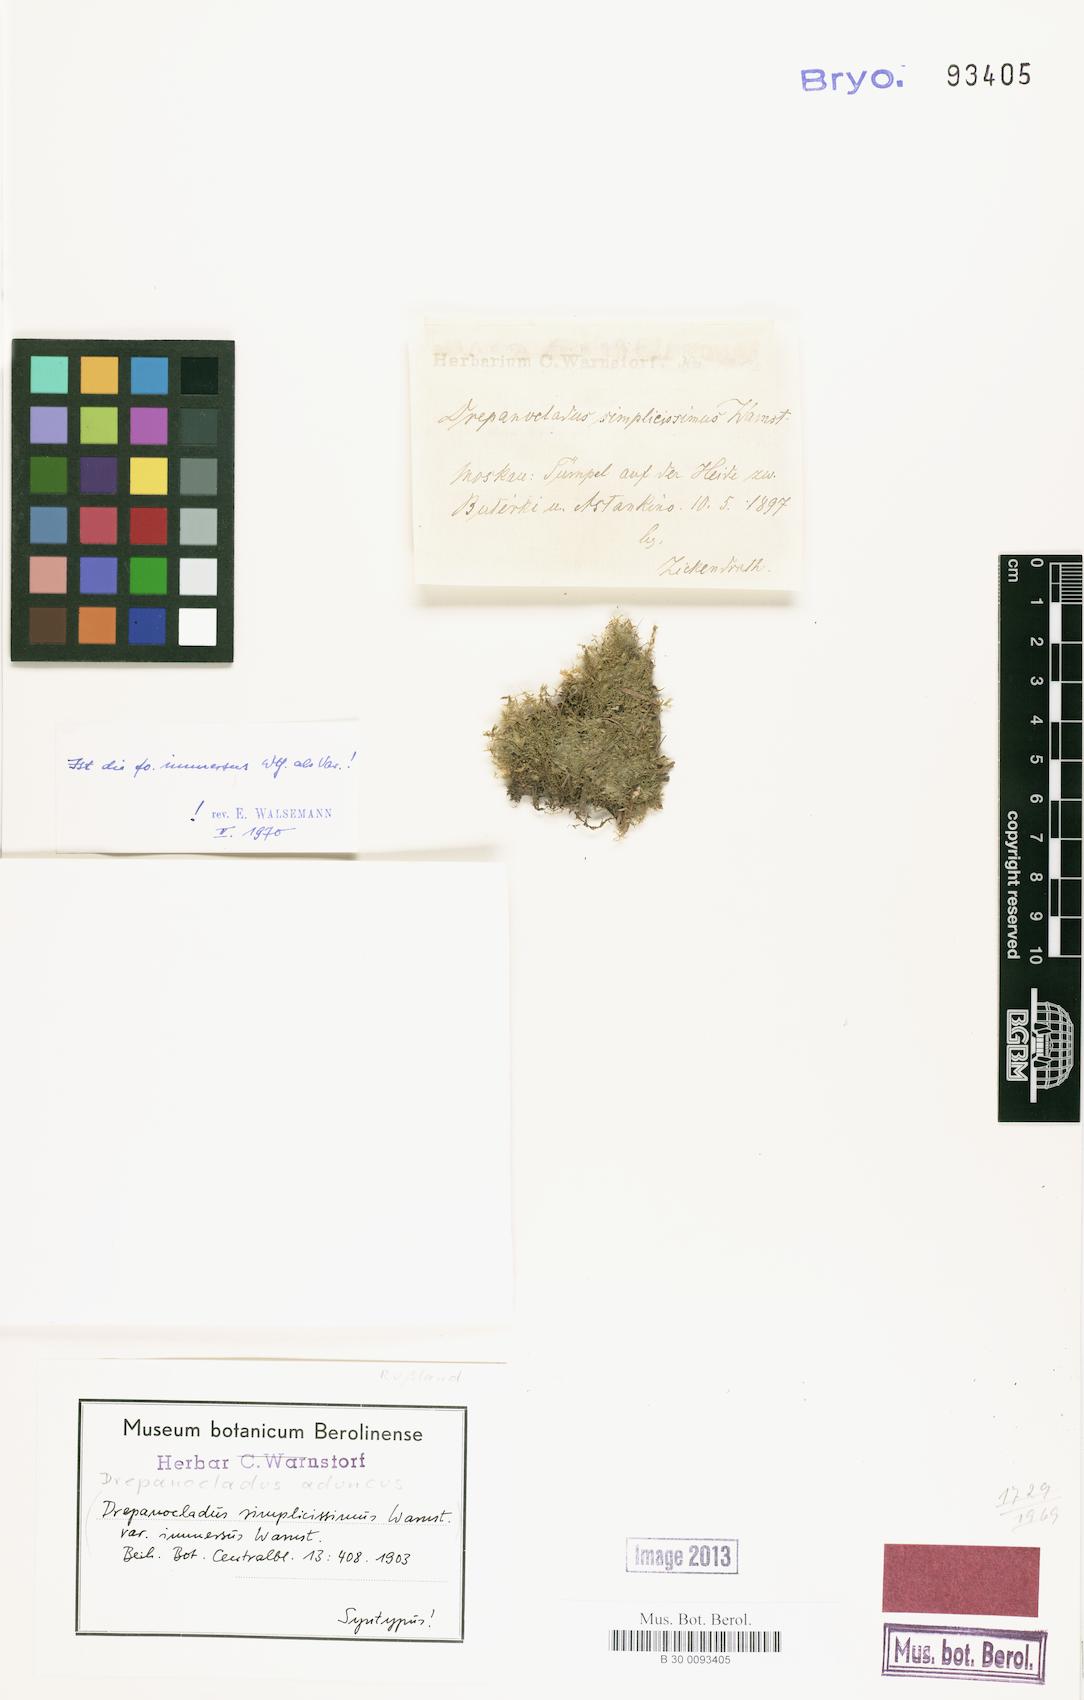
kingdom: Plantae
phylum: Bryophyta
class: Bryopsida
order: Hypnales
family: Amblystegiaceae
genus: Drepanocladus
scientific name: Drepanocladus aduncus
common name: Knieff's hook moss
